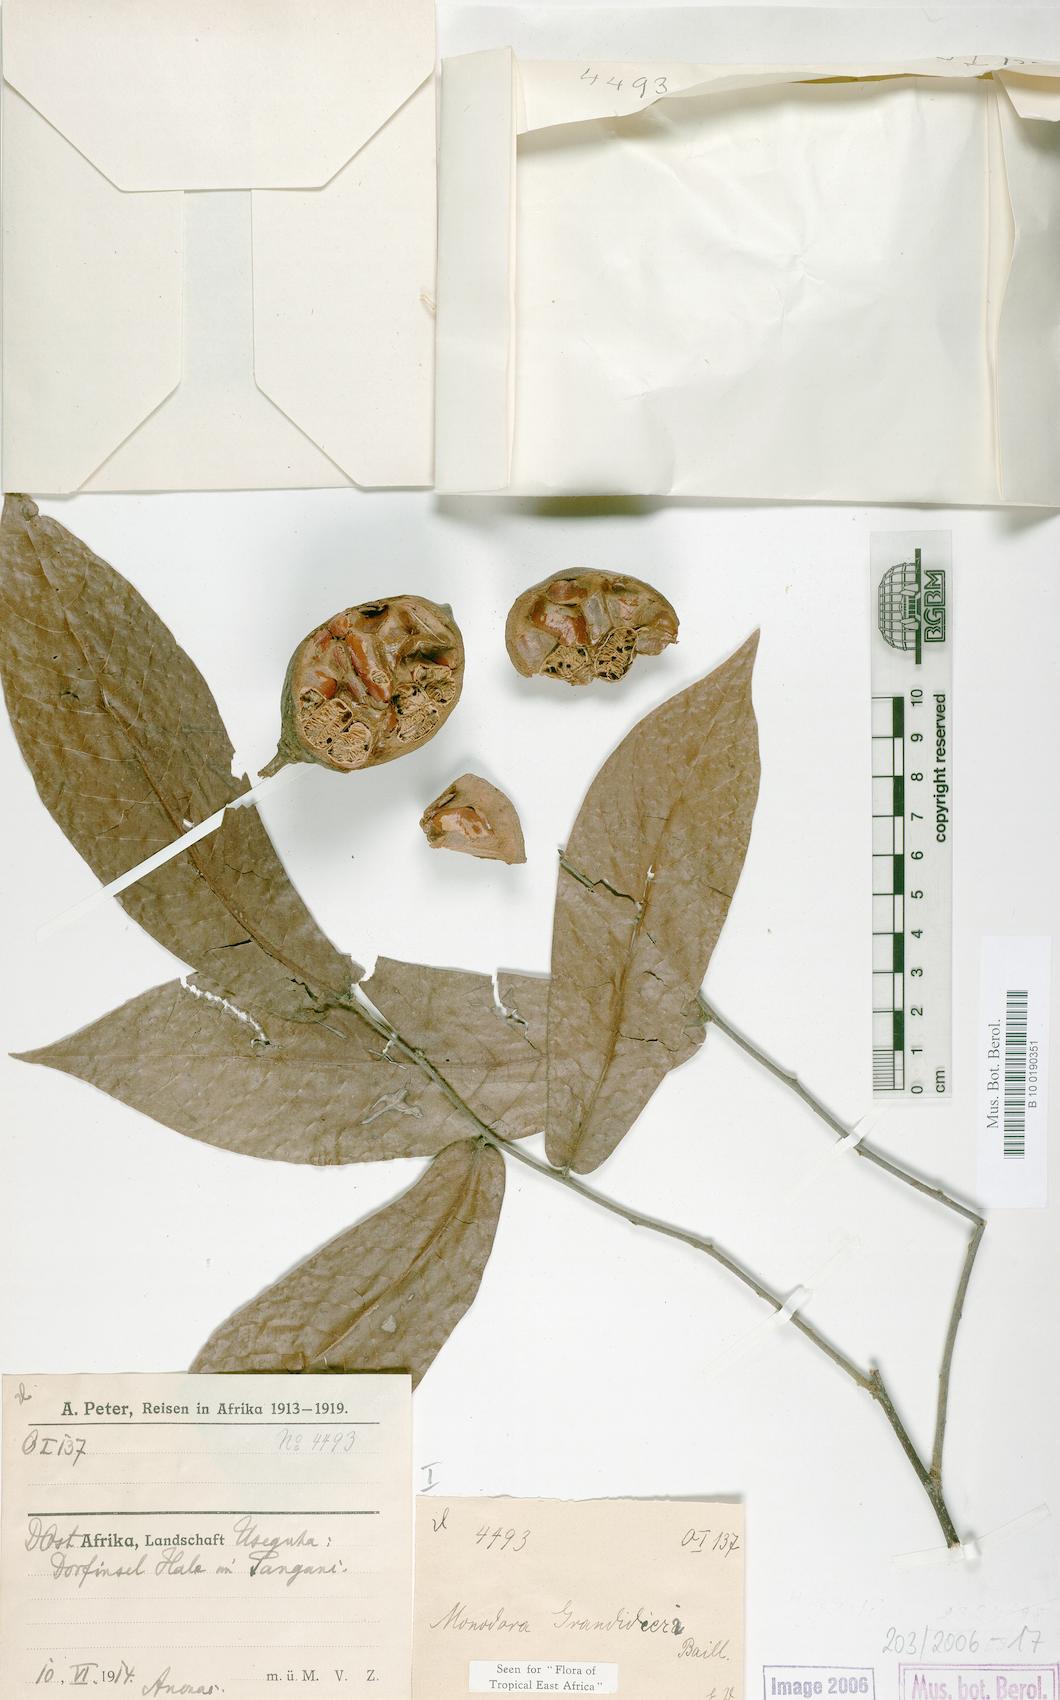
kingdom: Plantae
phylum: Tracheophyta
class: Magnoliopsida
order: Magnoliales
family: Annonaceae
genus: Monodora
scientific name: Monodora grandidieri
